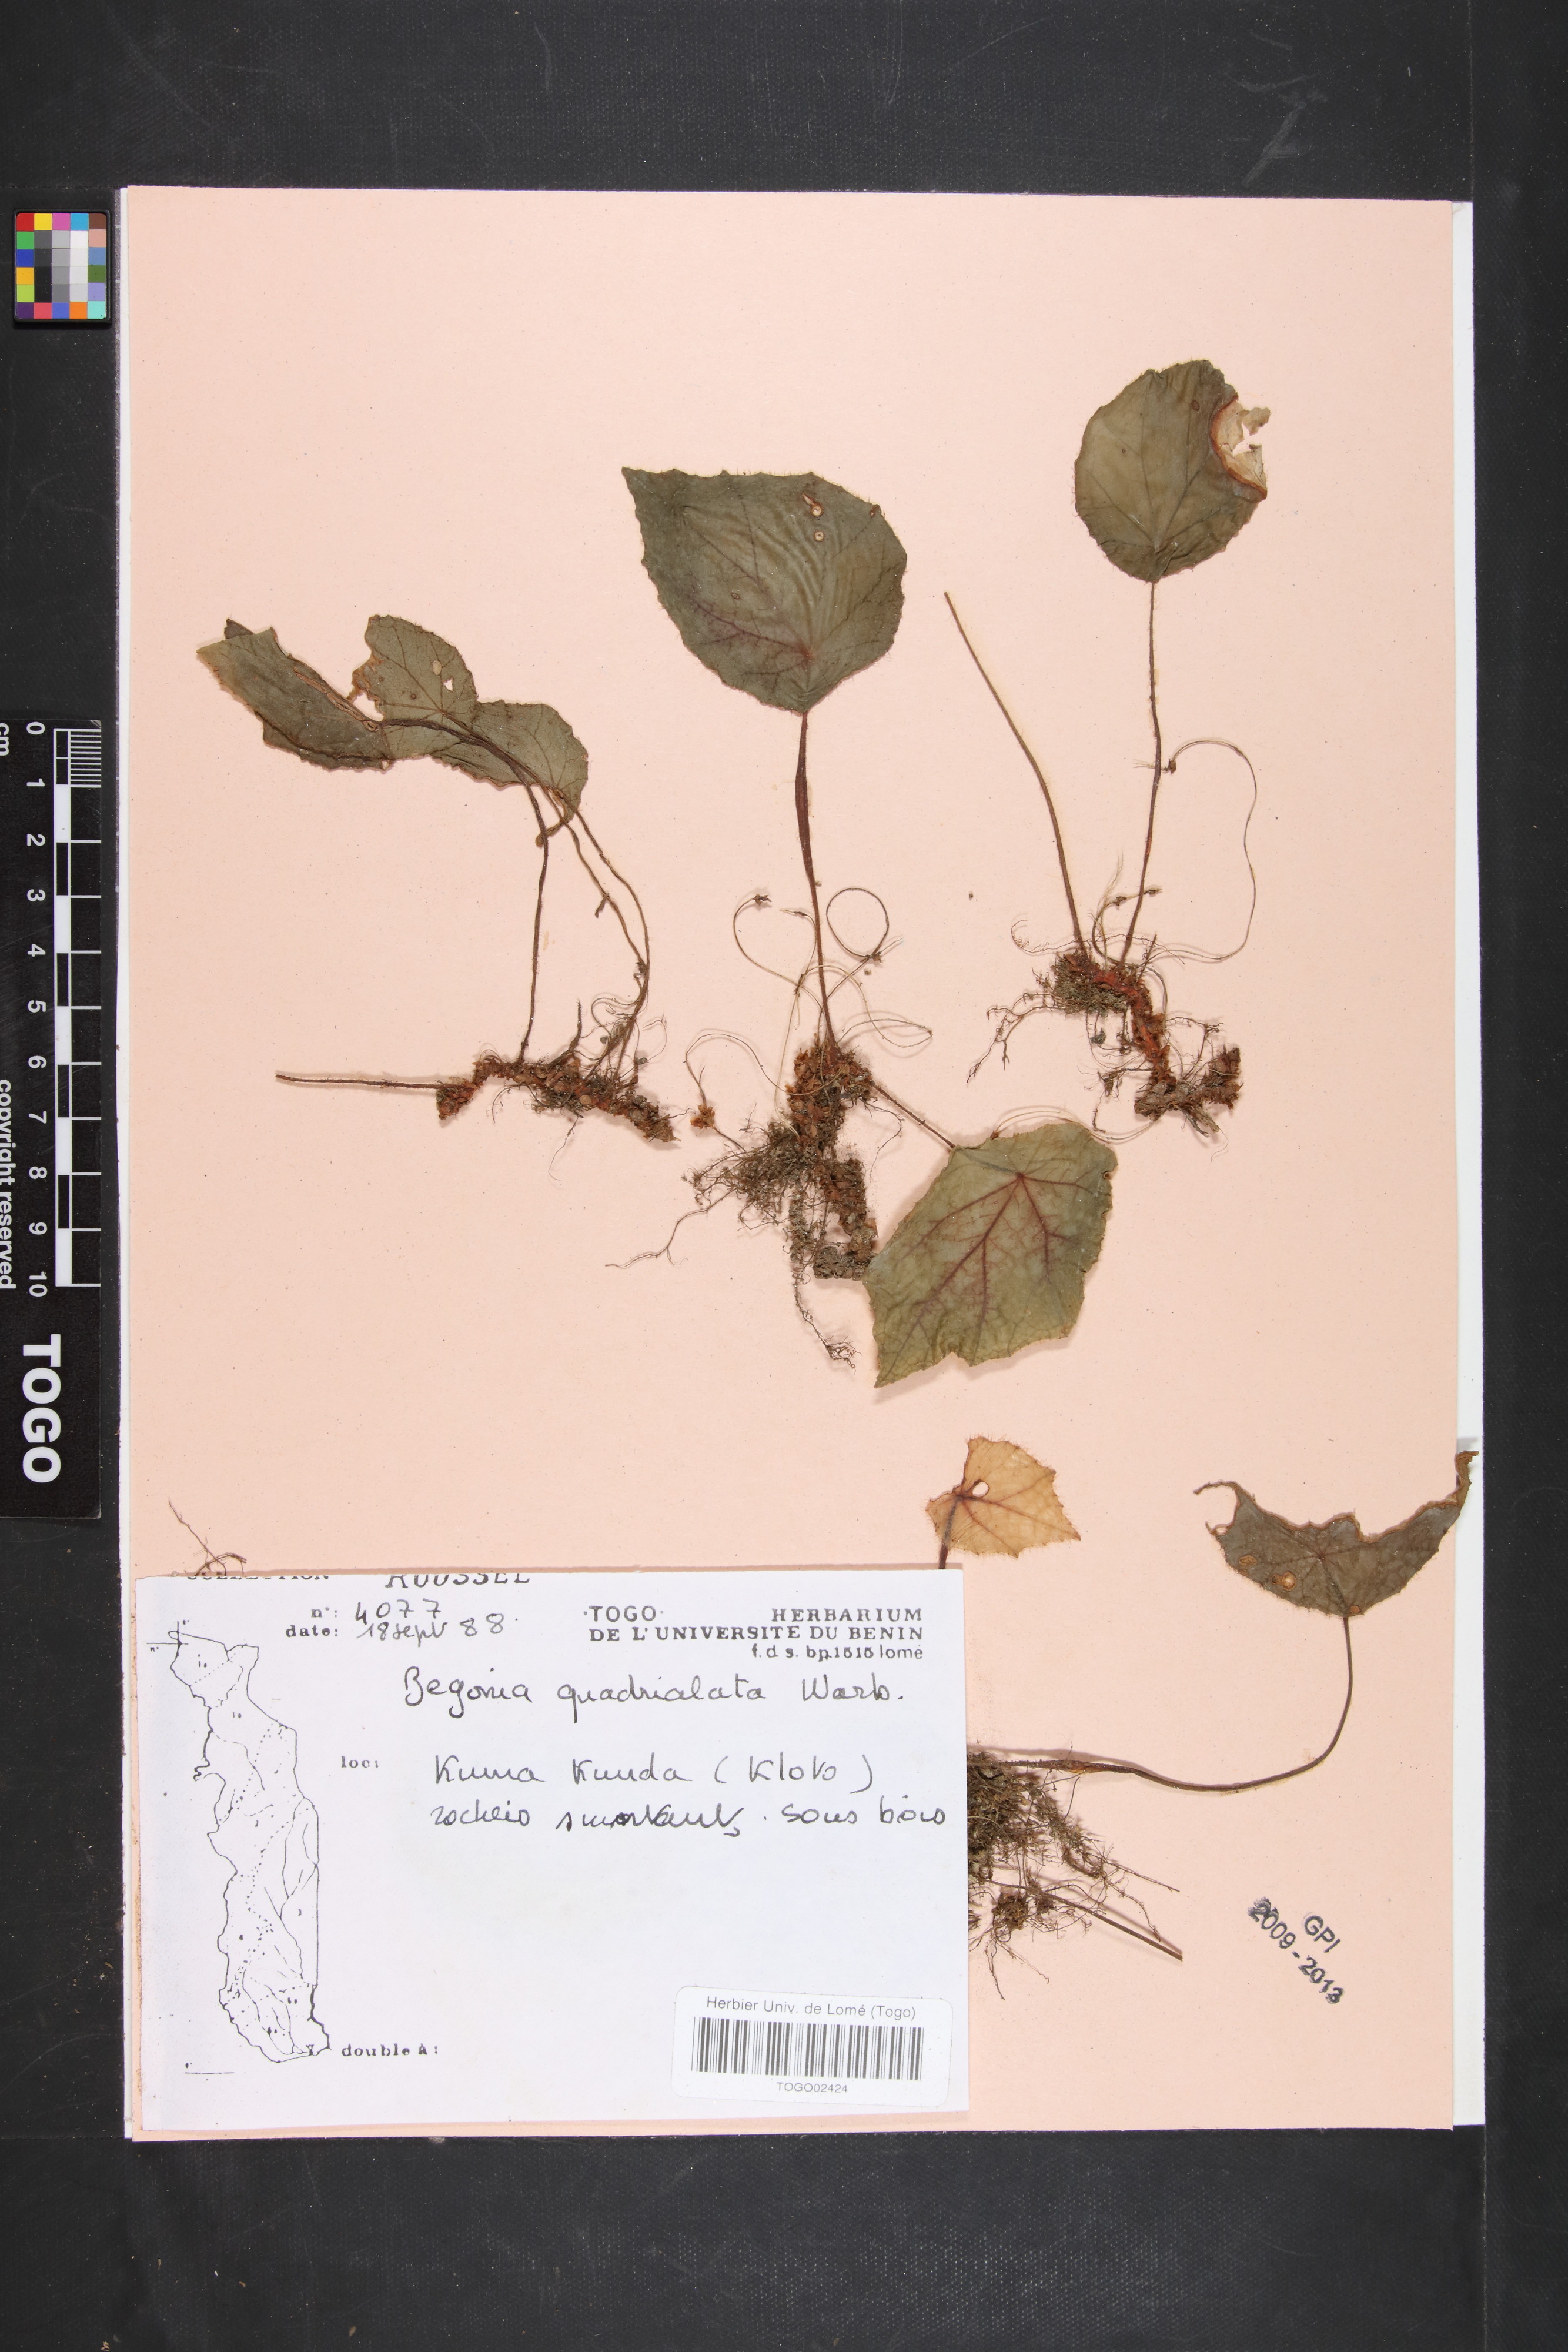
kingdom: Plantae
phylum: Tracheophyta
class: Magnoliopsida
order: Cucurbitales
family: Begoniaceae
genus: Begonia
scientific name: Begonia quadrialata
